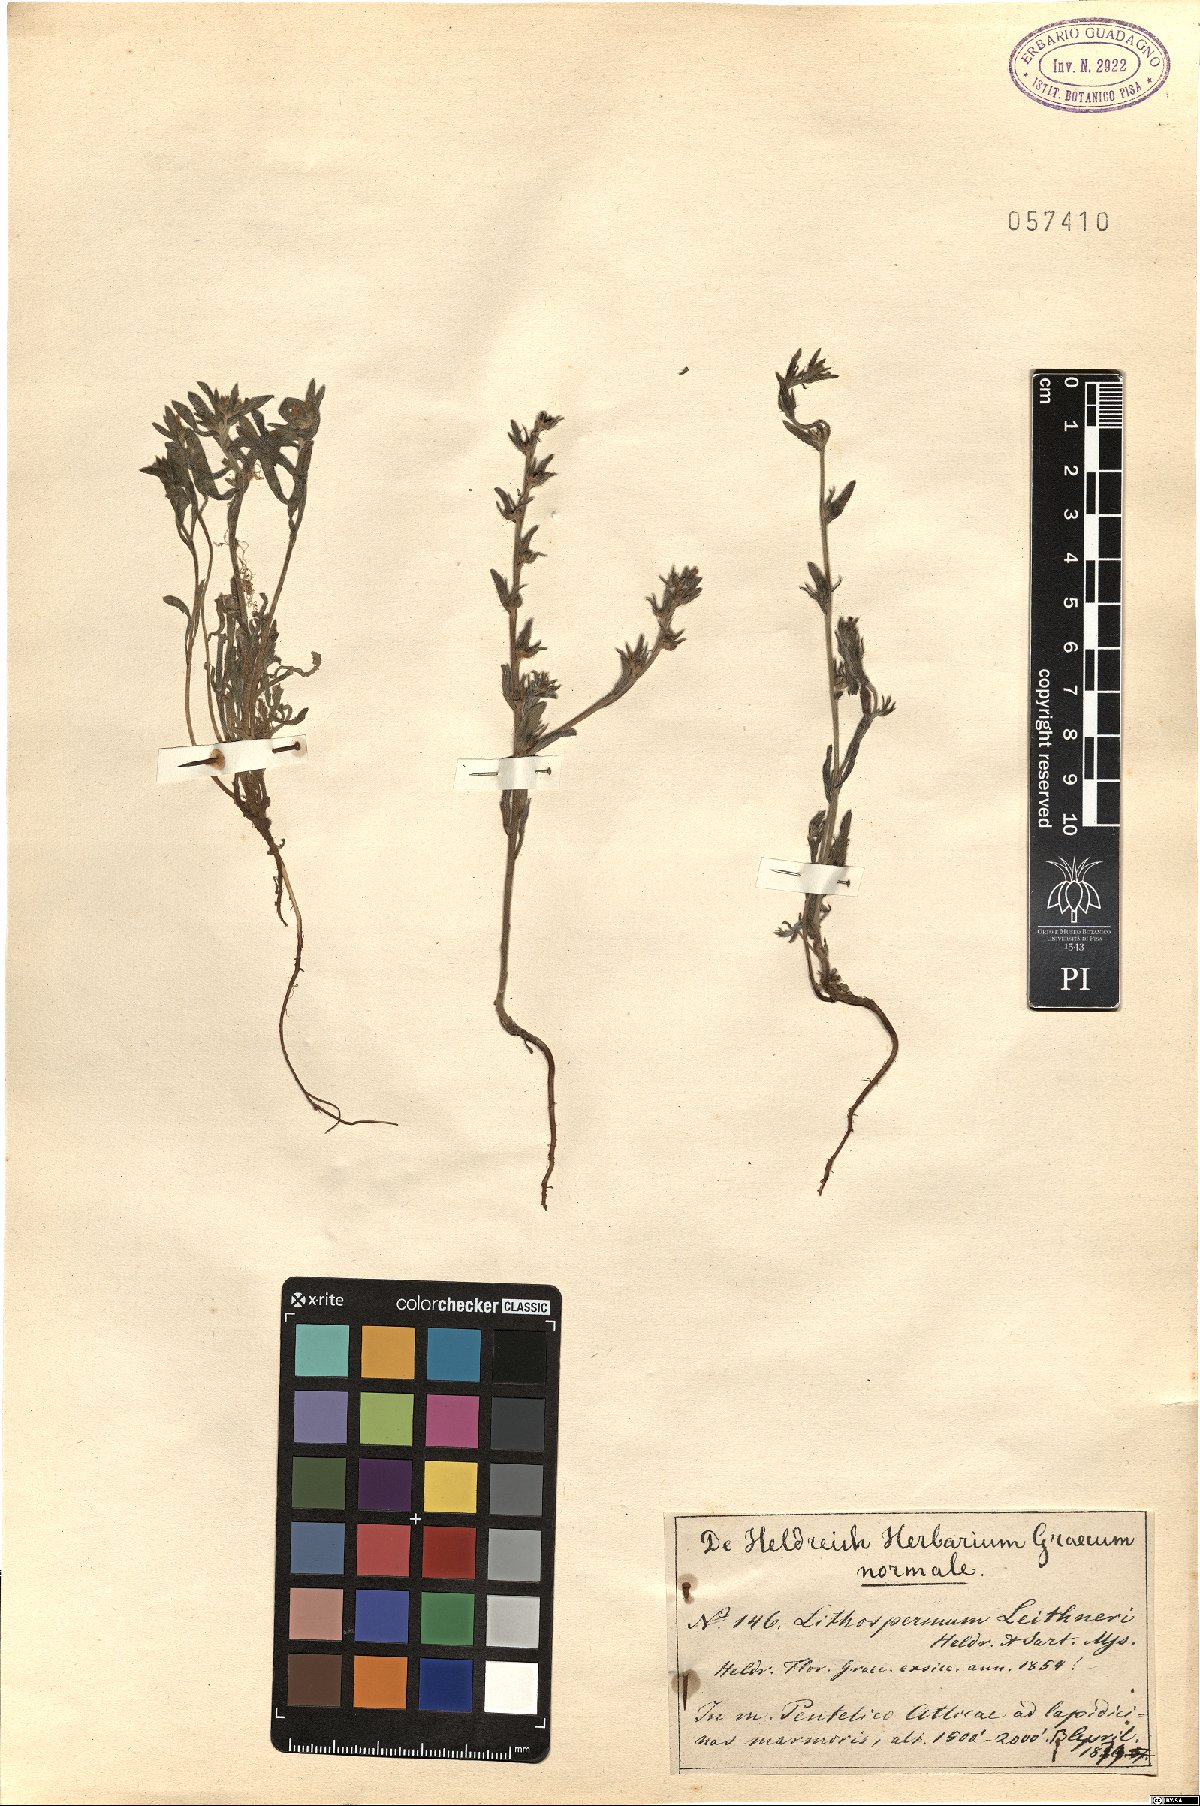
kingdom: Plantae
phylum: Tracheophyta
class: Magnoliopsida
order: Boraginales
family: Boraginaceae
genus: Buglossoides
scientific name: Buglossoides incrassata
